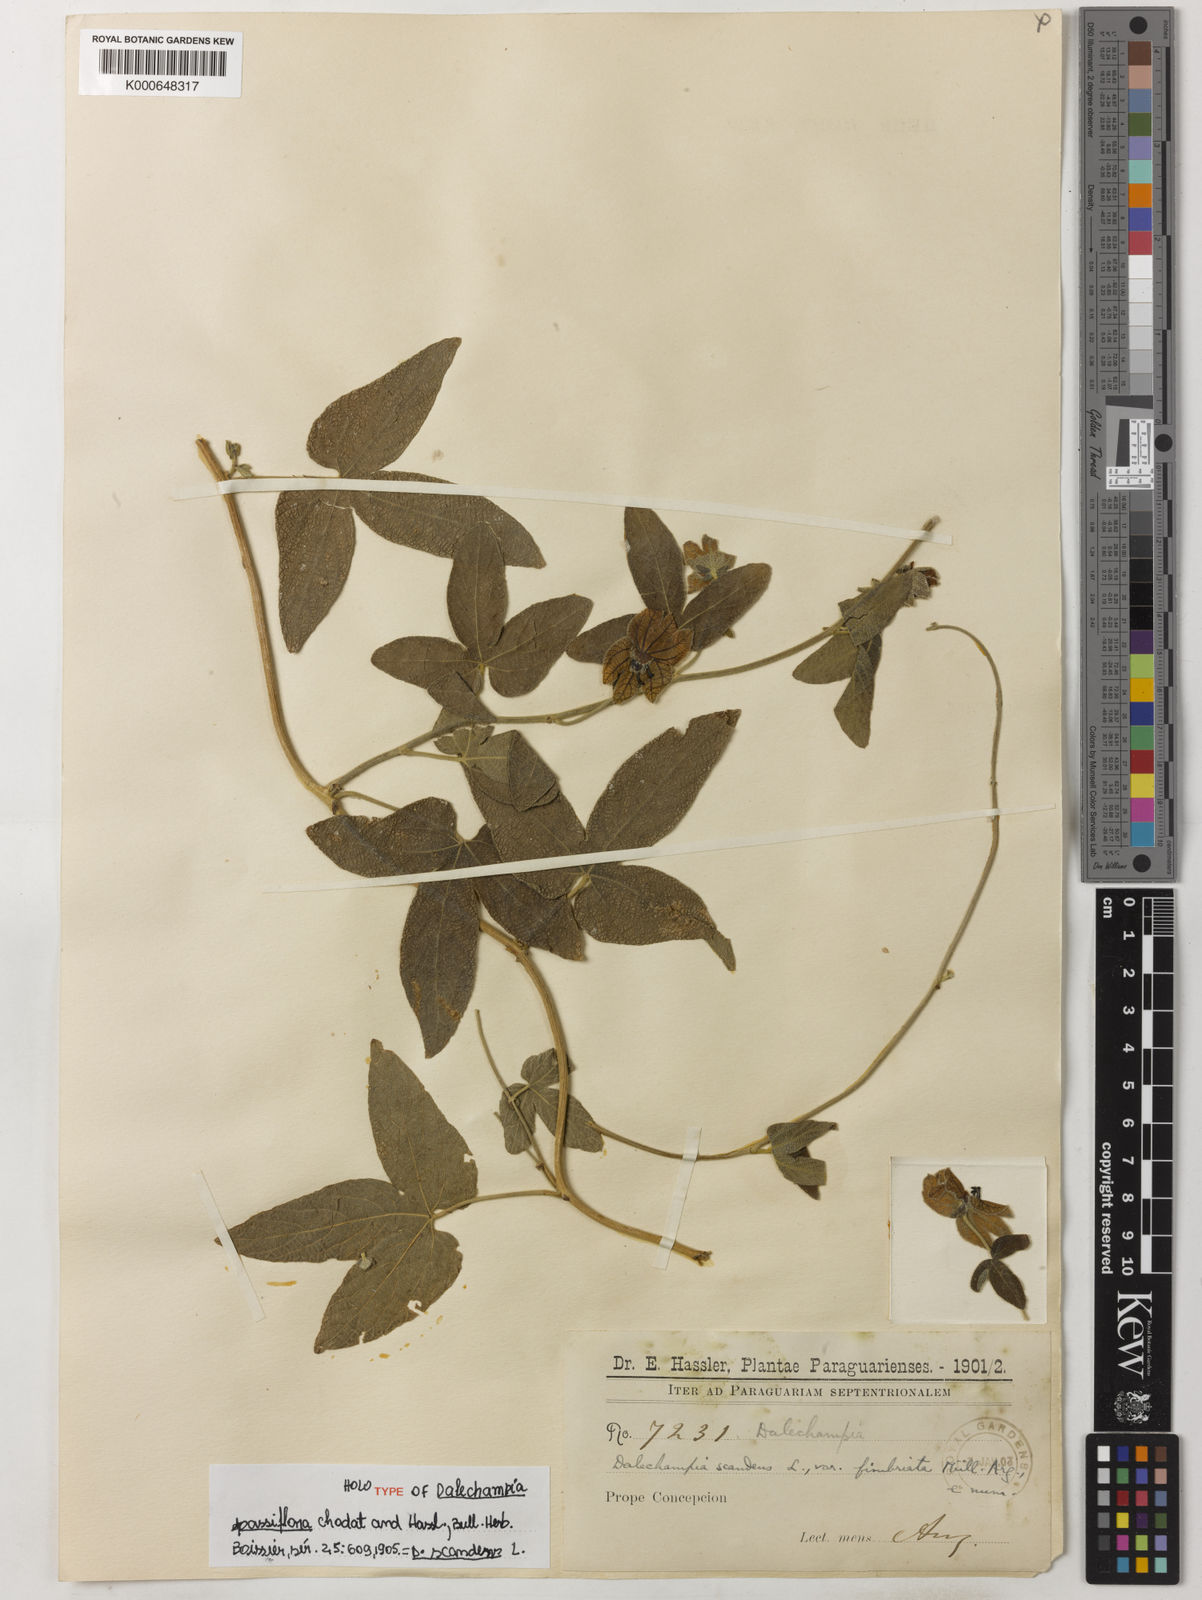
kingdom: Plantae
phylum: Tracheophyta
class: Magnoliopsida
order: Malpighiales
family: Euphorbiaceae
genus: Dalechampia
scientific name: Dalechampia scandens
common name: Spurgecreeper
